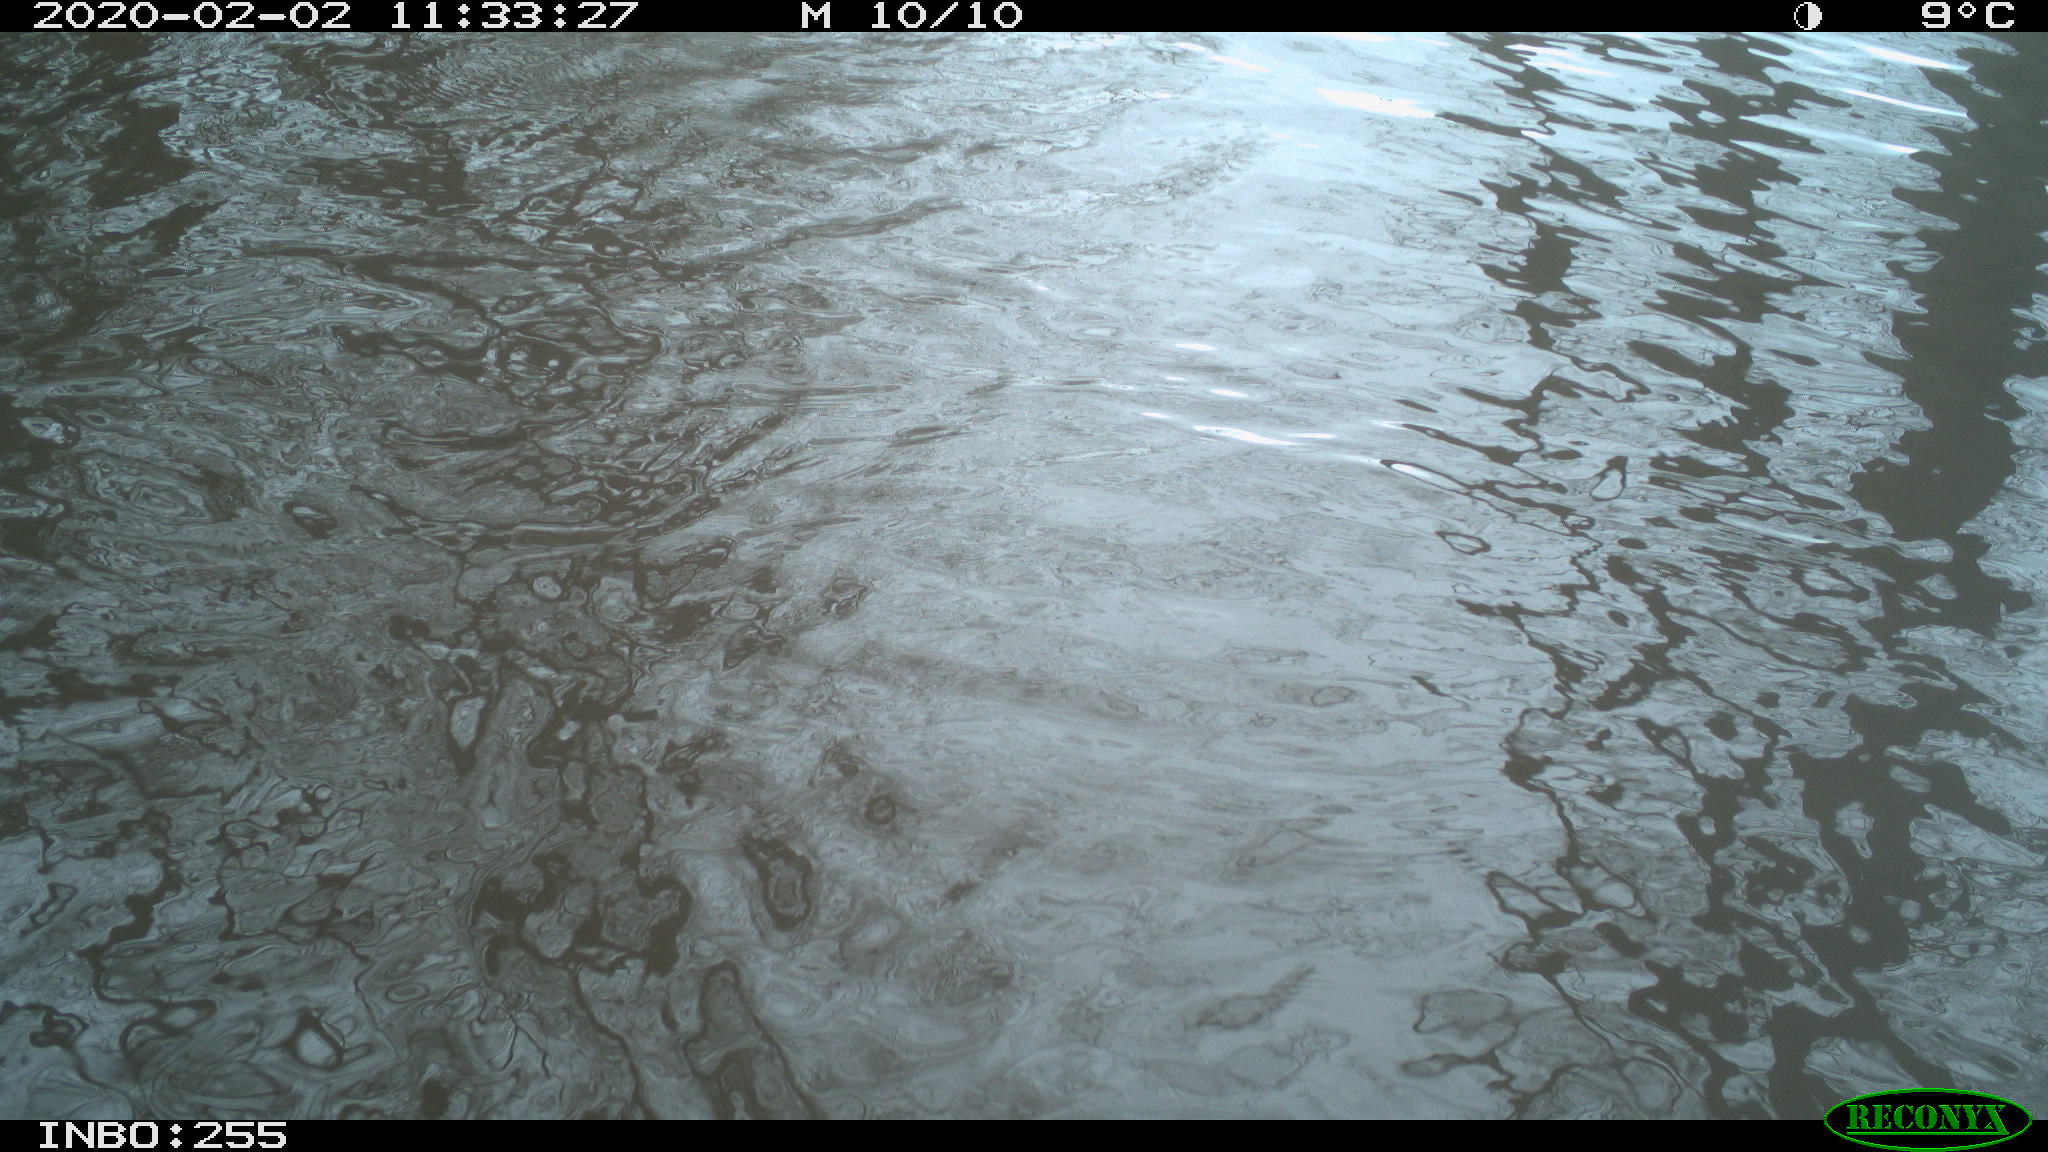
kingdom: Animalia
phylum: Chordata
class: Aves
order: Gruiformes
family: Rallidae
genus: Fulica
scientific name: Fulica atra
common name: Eurasian coot
